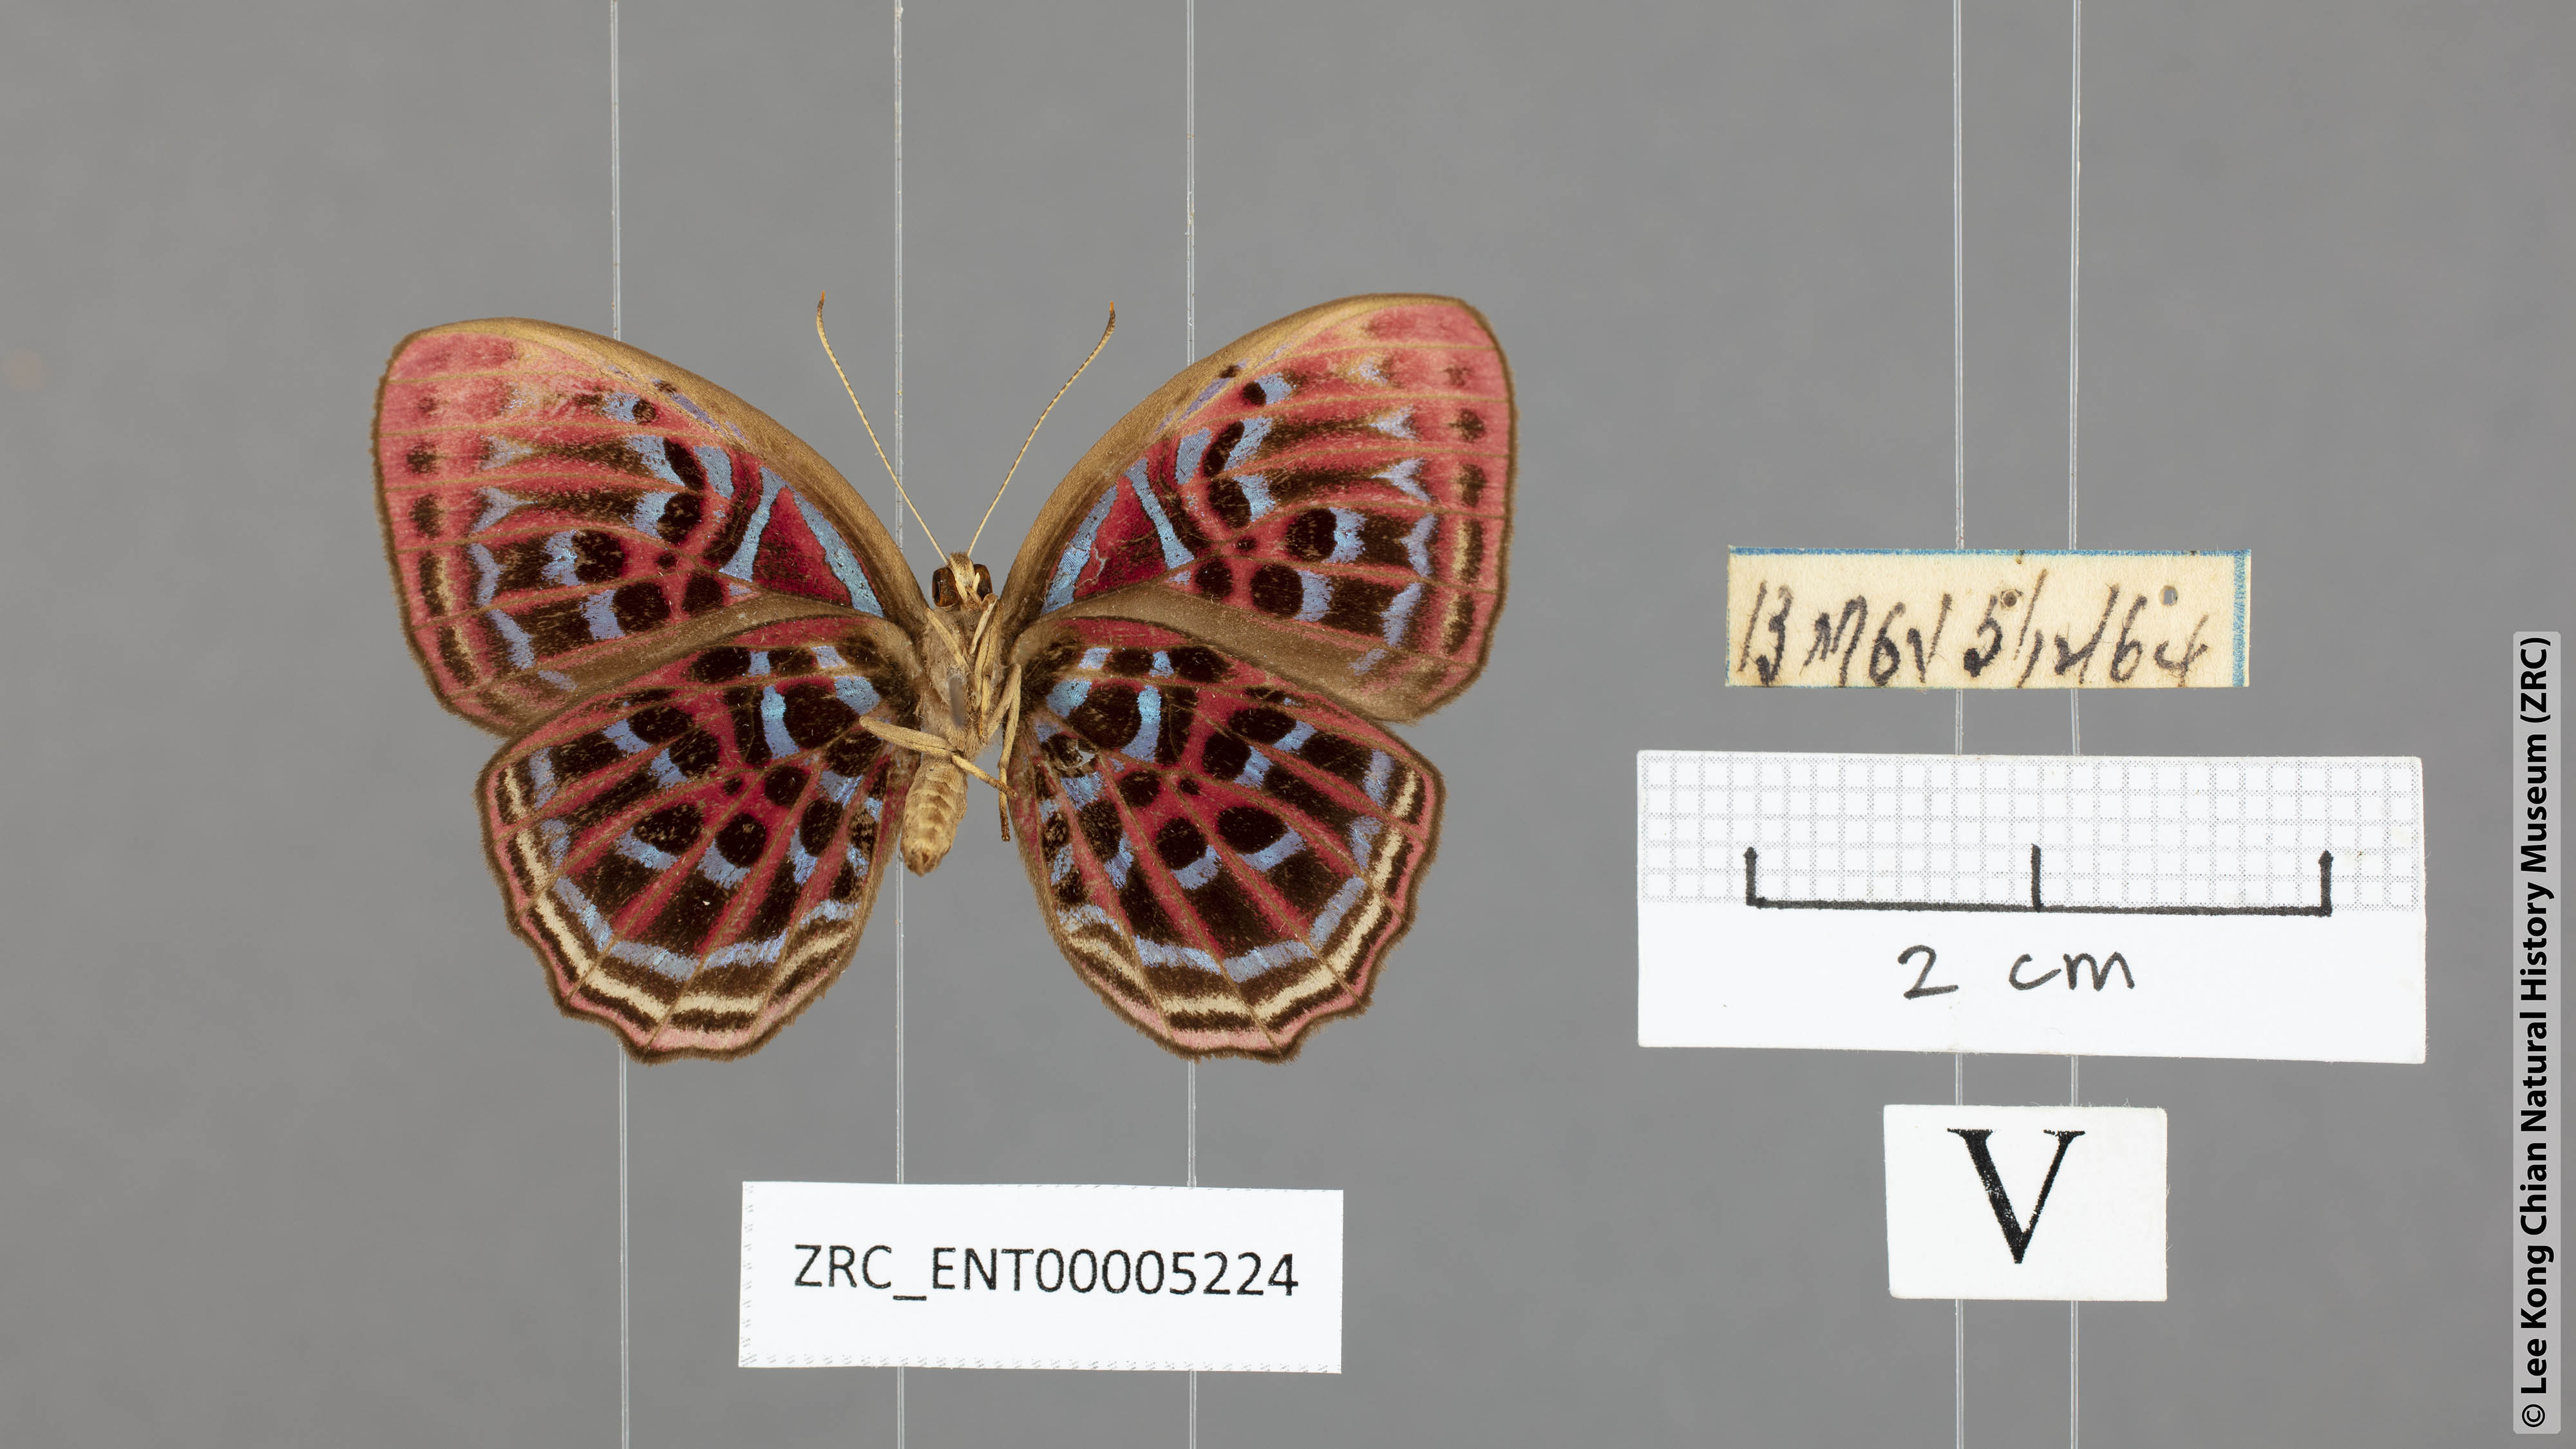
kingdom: Animalia
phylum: Arthropoda
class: Insecta
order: Lepidoptera
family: Riodinidae
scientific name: Riodinidae
